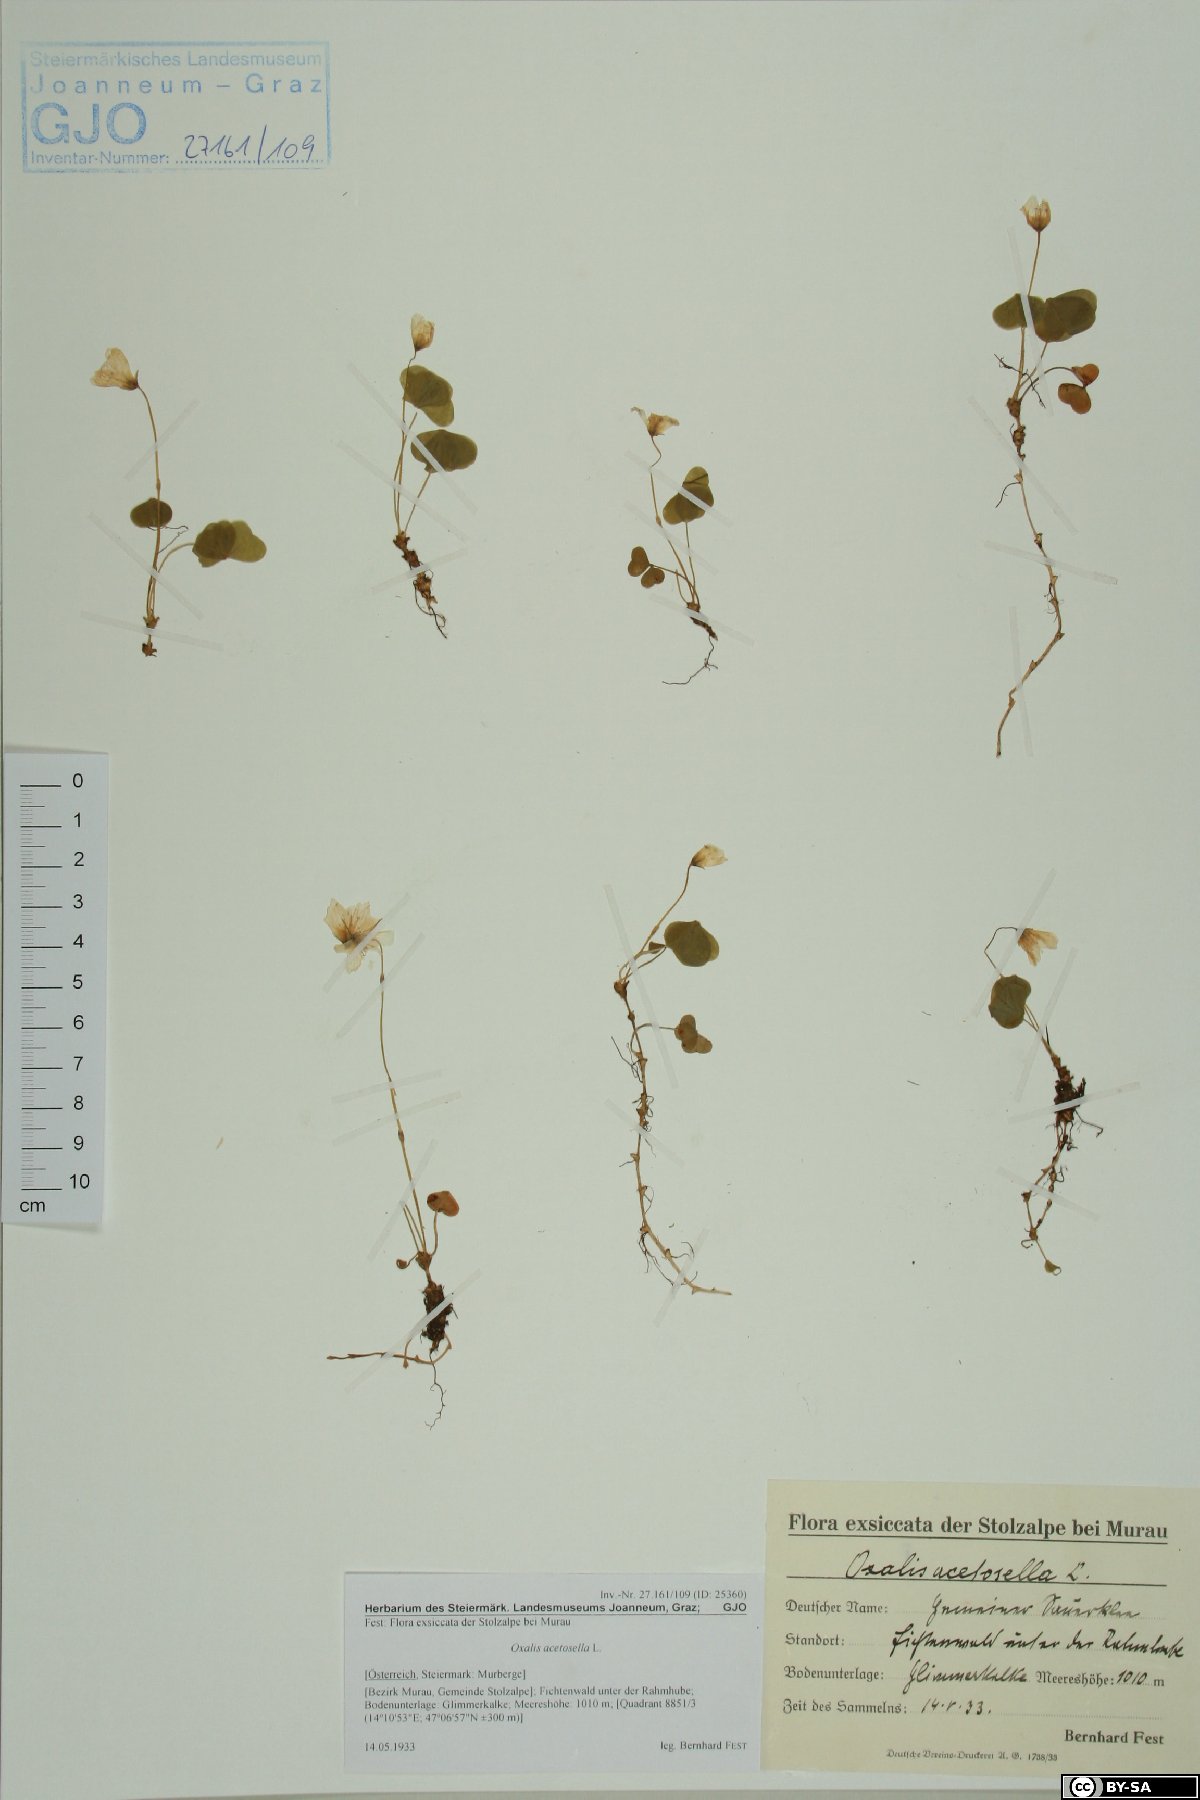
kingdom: Plantae
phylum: Tracheophyta
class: Magnoliopsida
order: Oxalidales
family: Oxalidaceae
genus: Oxalis
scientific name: Oxalis acetosella
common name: Wood-sorrel
